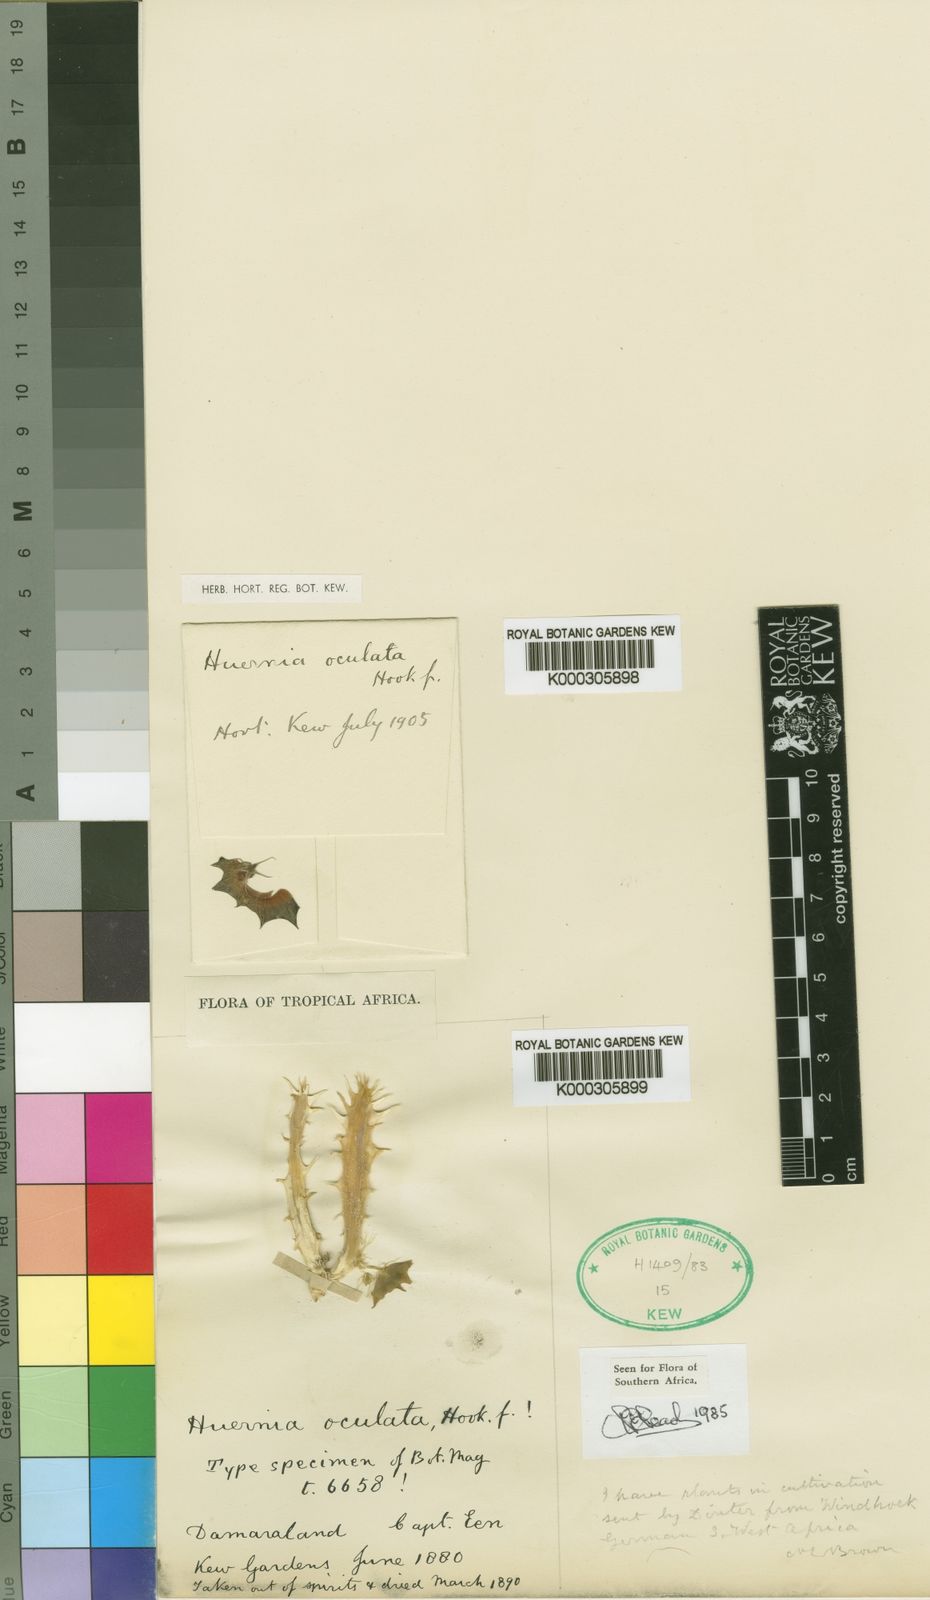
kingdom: Plantae
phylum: Tracheophyta
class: Magnoliopsida
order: Gentianales
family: Apocynaceae
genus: Ceropegia
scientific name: Ceropegia oculatoides
